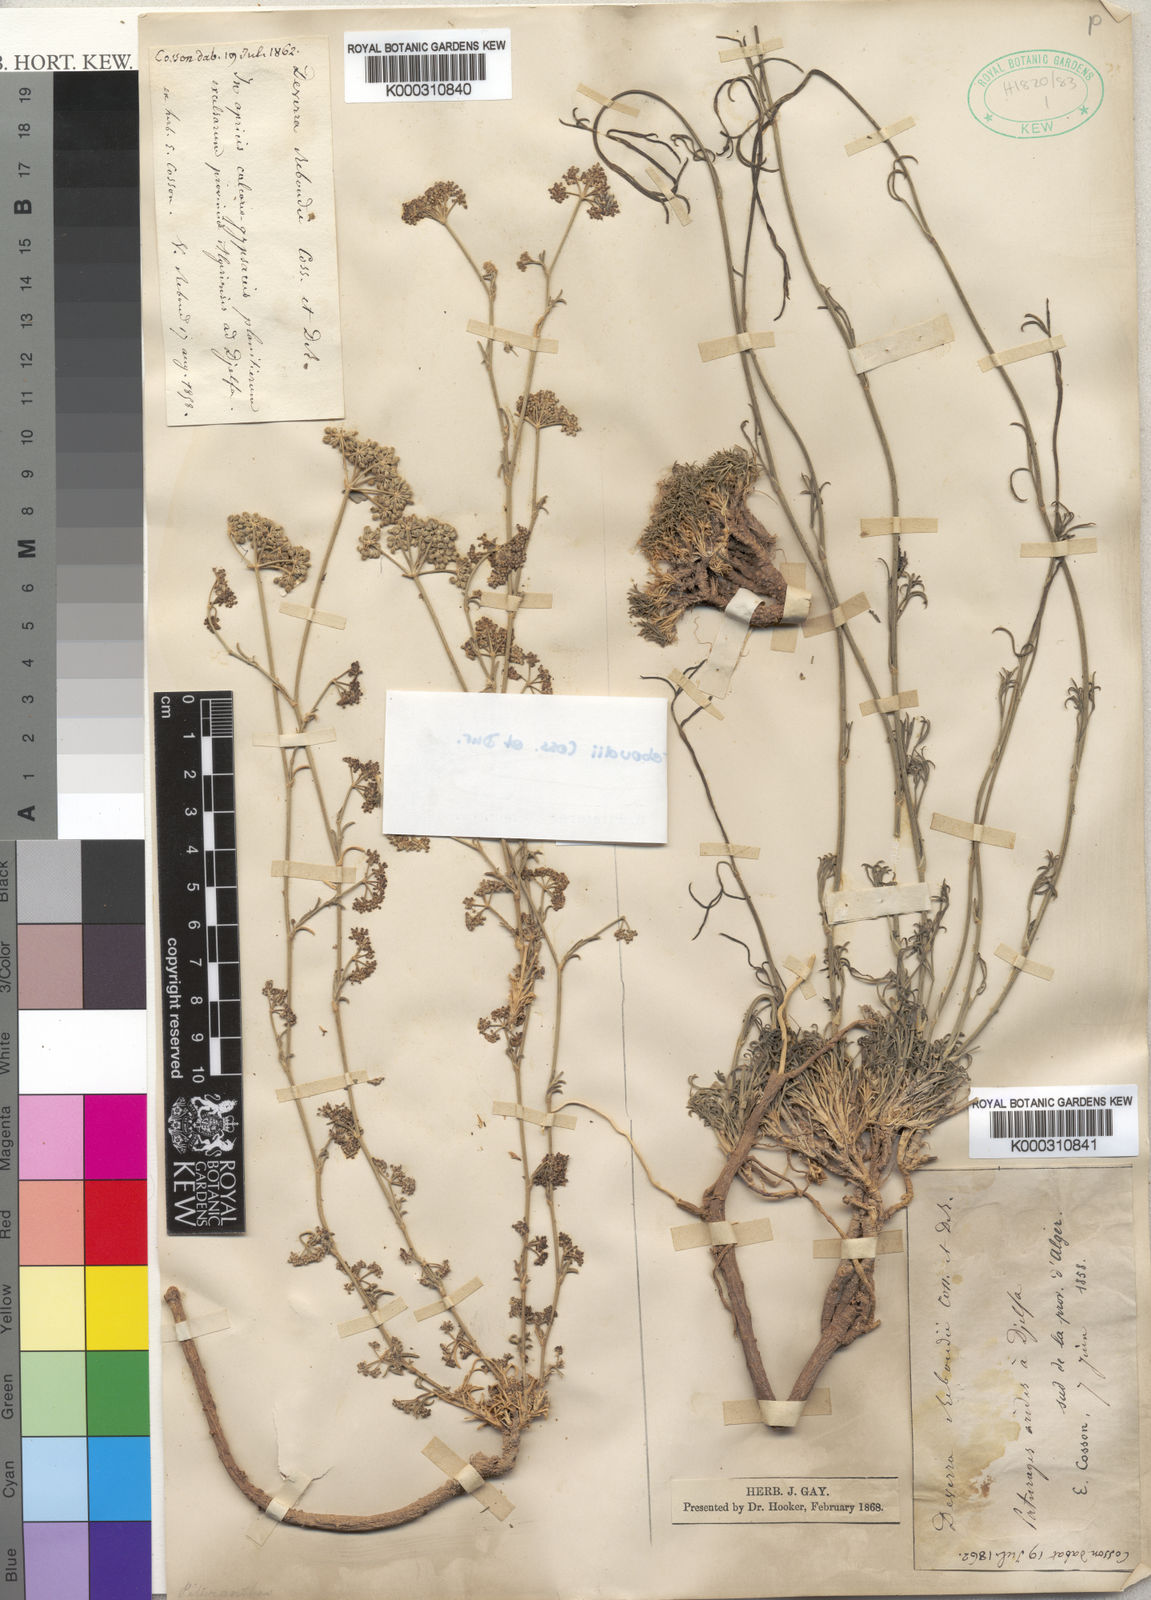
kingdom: Plantae
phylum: Tracheophyta
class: Magnoliopsida
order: Apiales
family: Apiaceae
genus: Deverra
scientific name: Deverra reboudii
